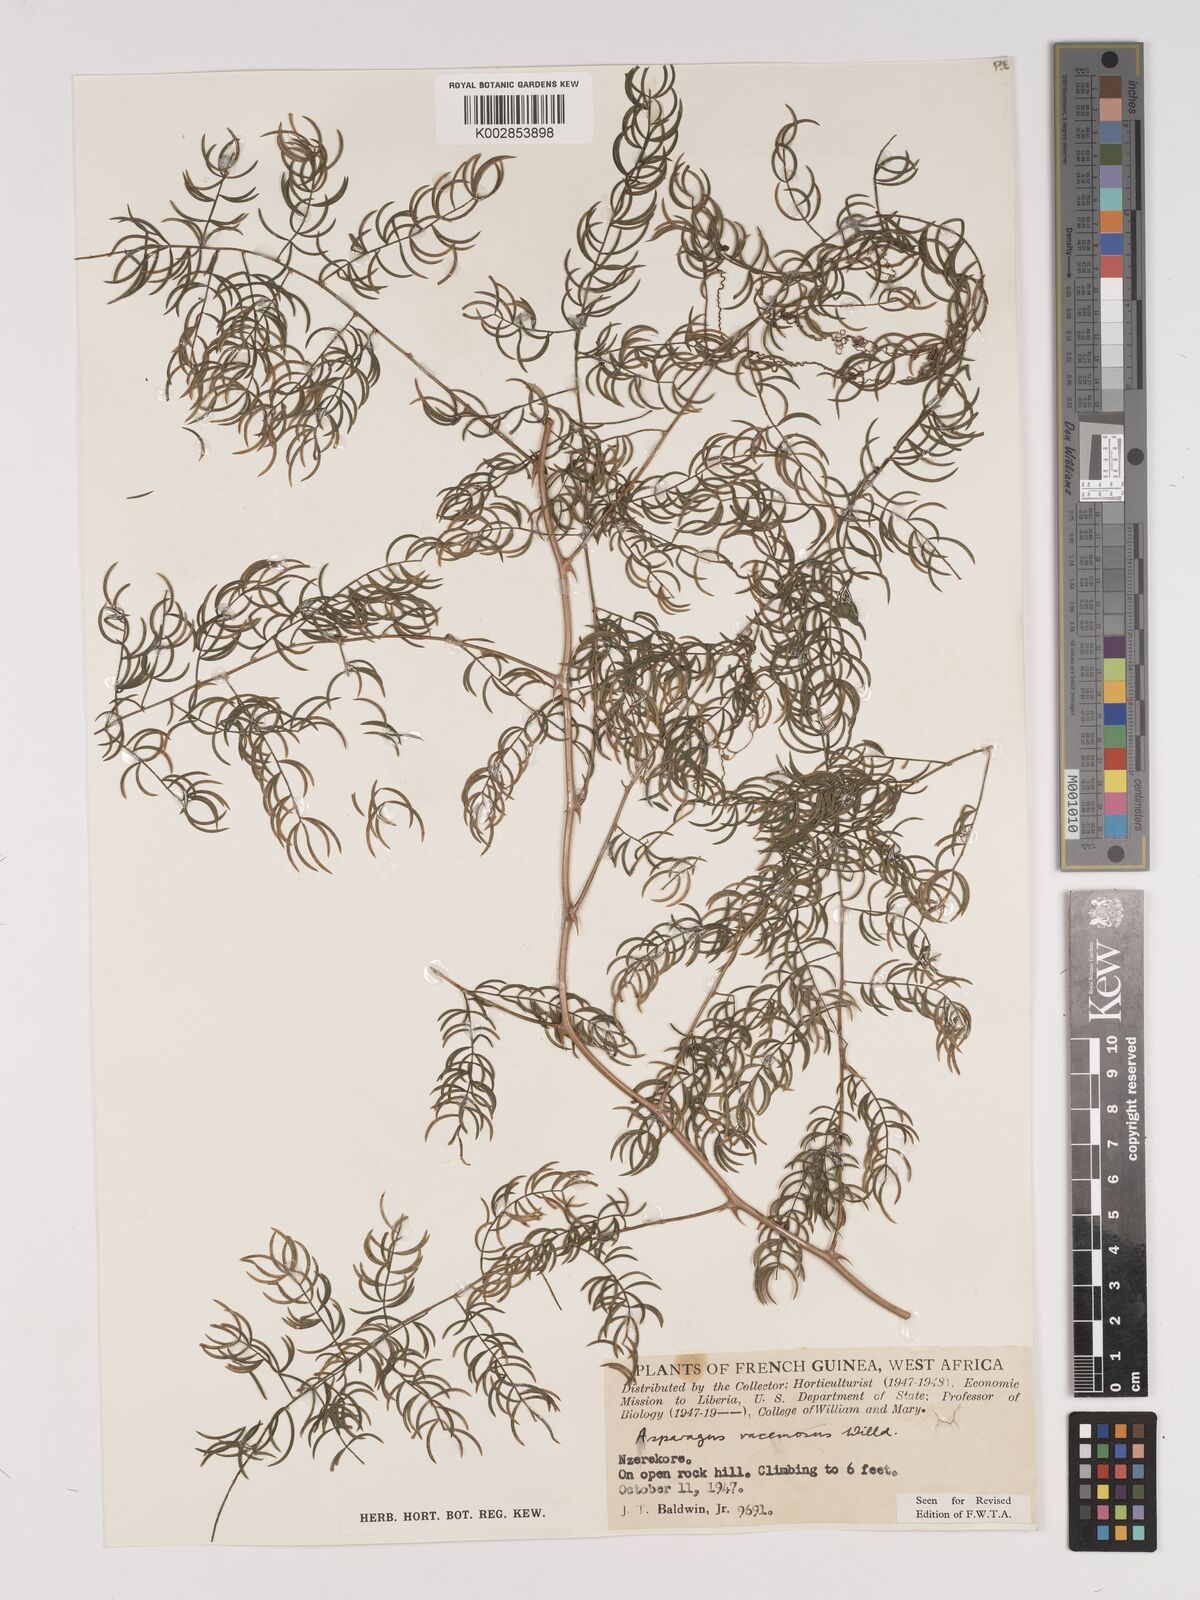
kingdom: Plantae
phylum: Tracheophyta
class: Liliopsida
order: Asparagales
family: Asparagaceae
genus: Asparagus
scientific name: Asparagus racemosus
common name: Asparagus-fern
